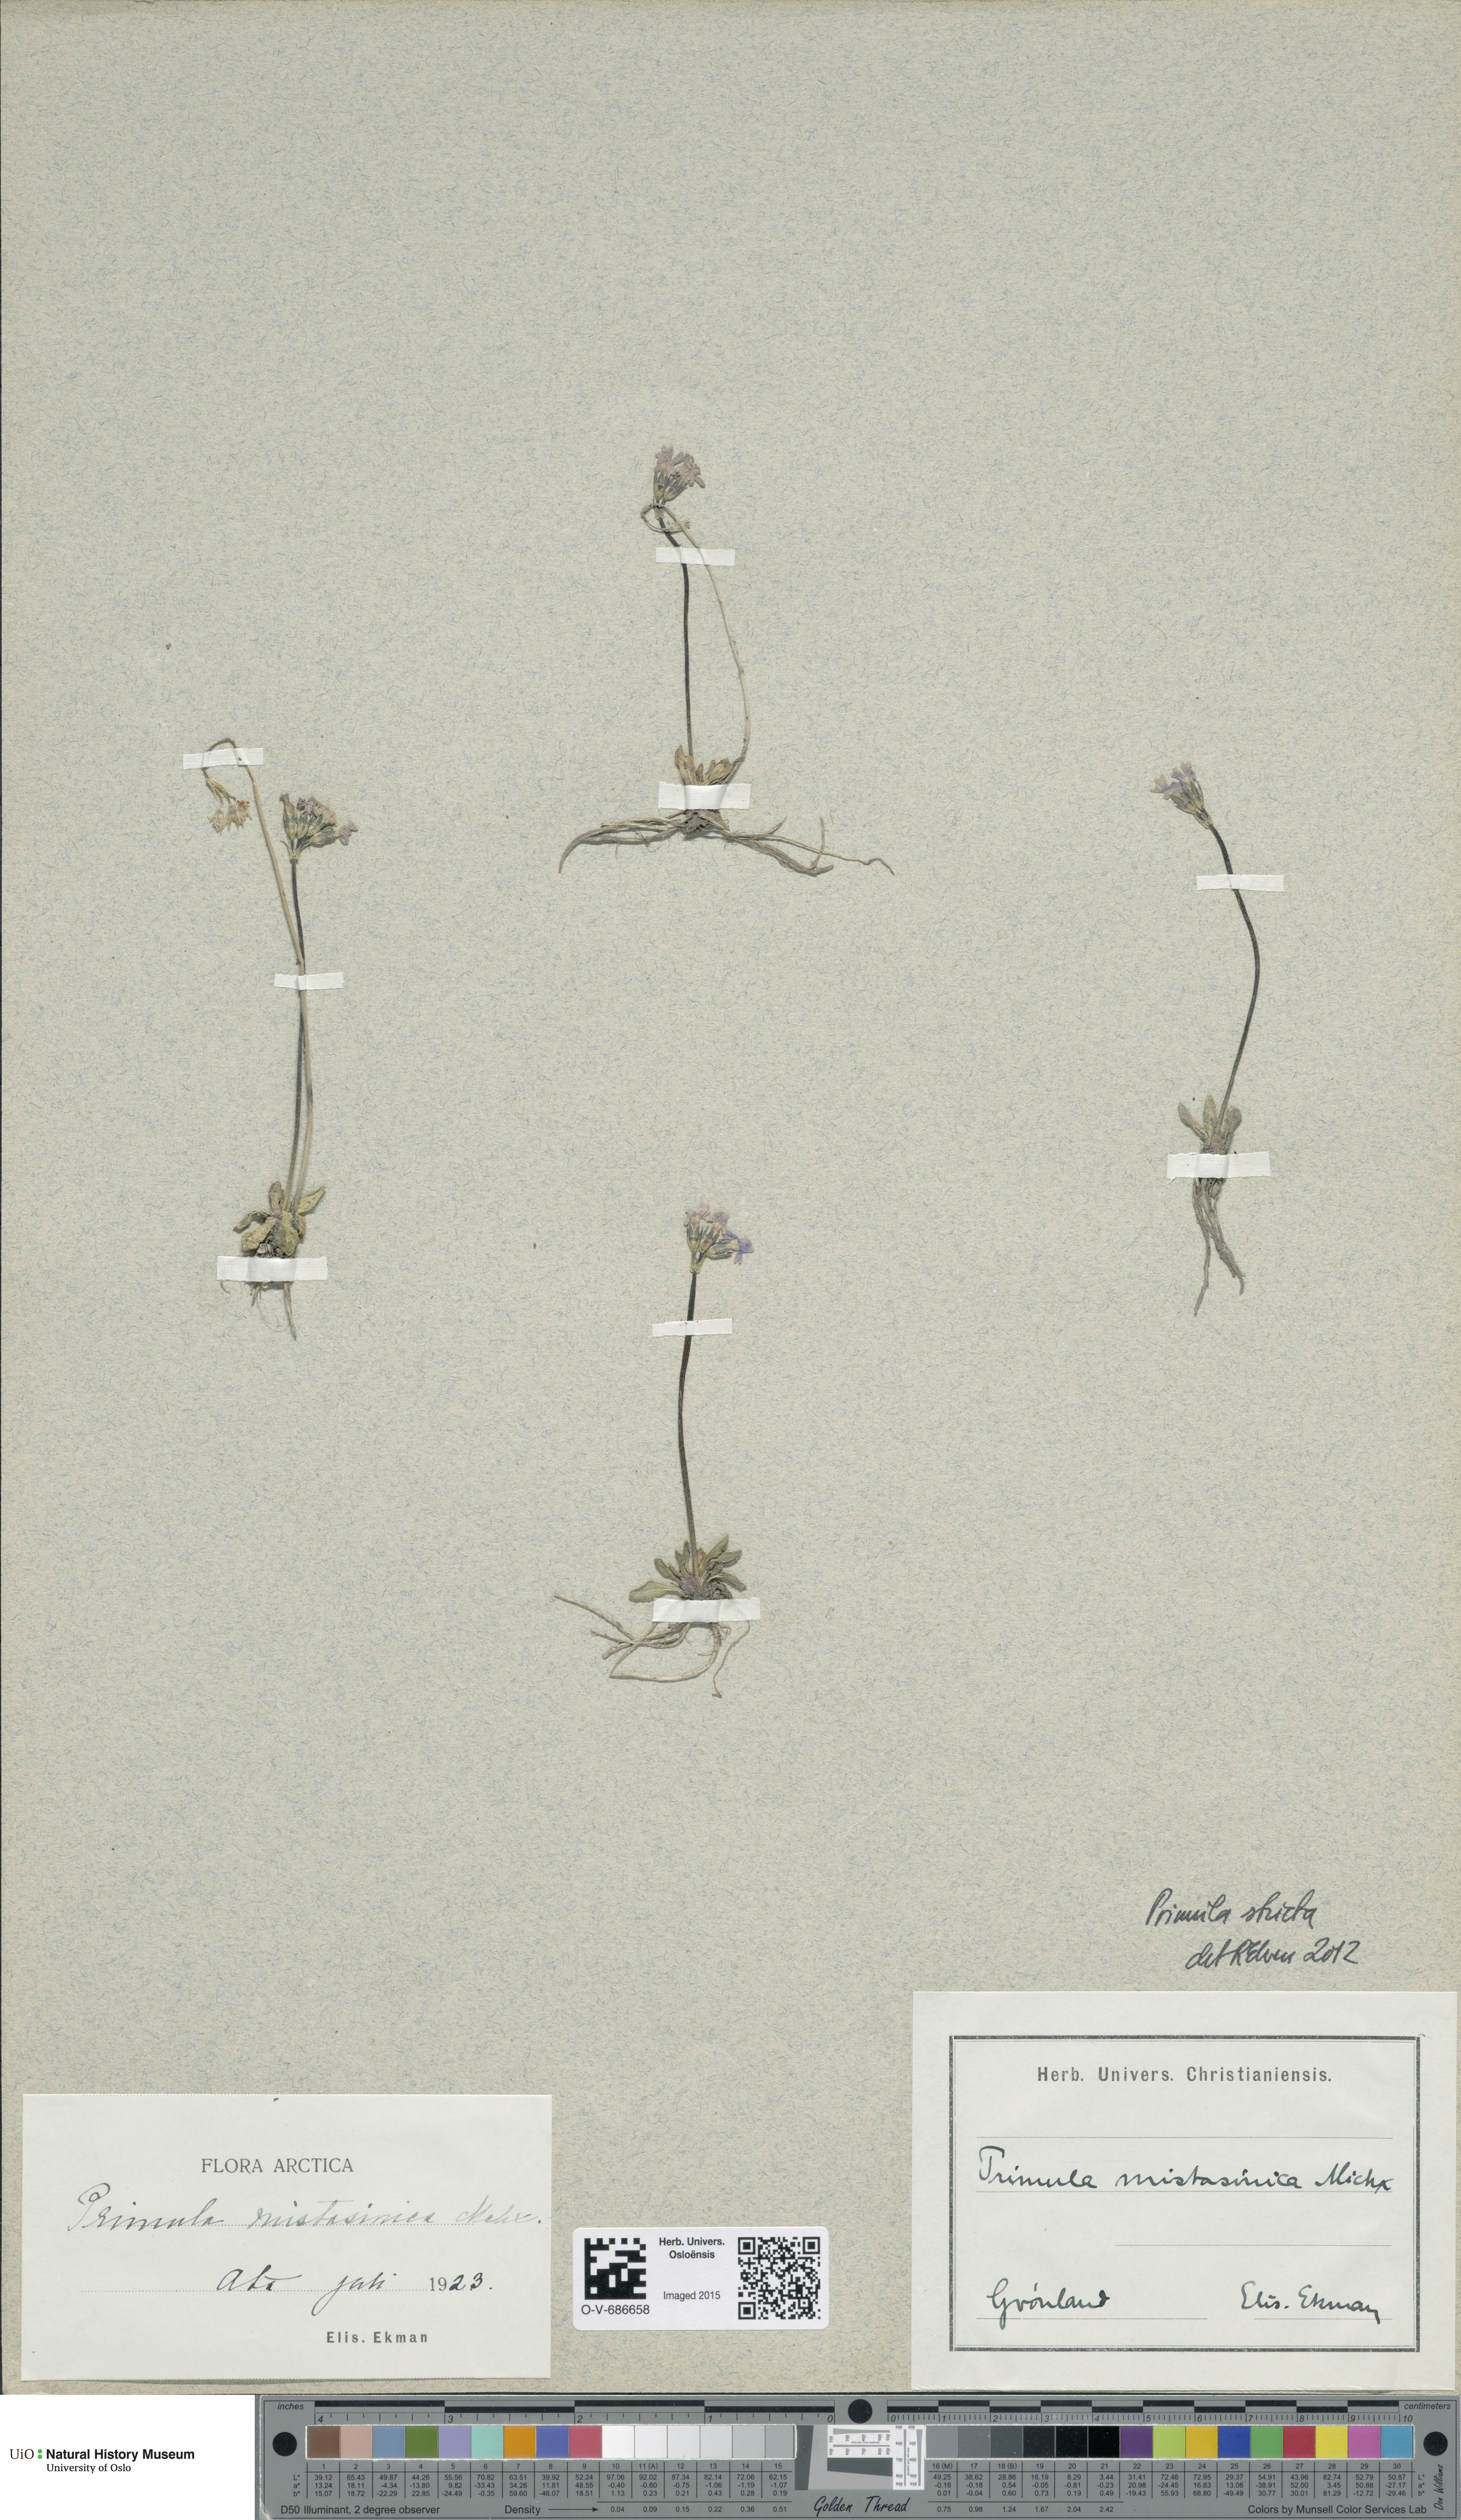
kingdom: Plantae
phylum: Tracheophyta
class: Magnoliopsida
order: Ericales
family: Primulaceae
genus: Primula
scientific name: Primula stricta
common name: Coastal primrose
